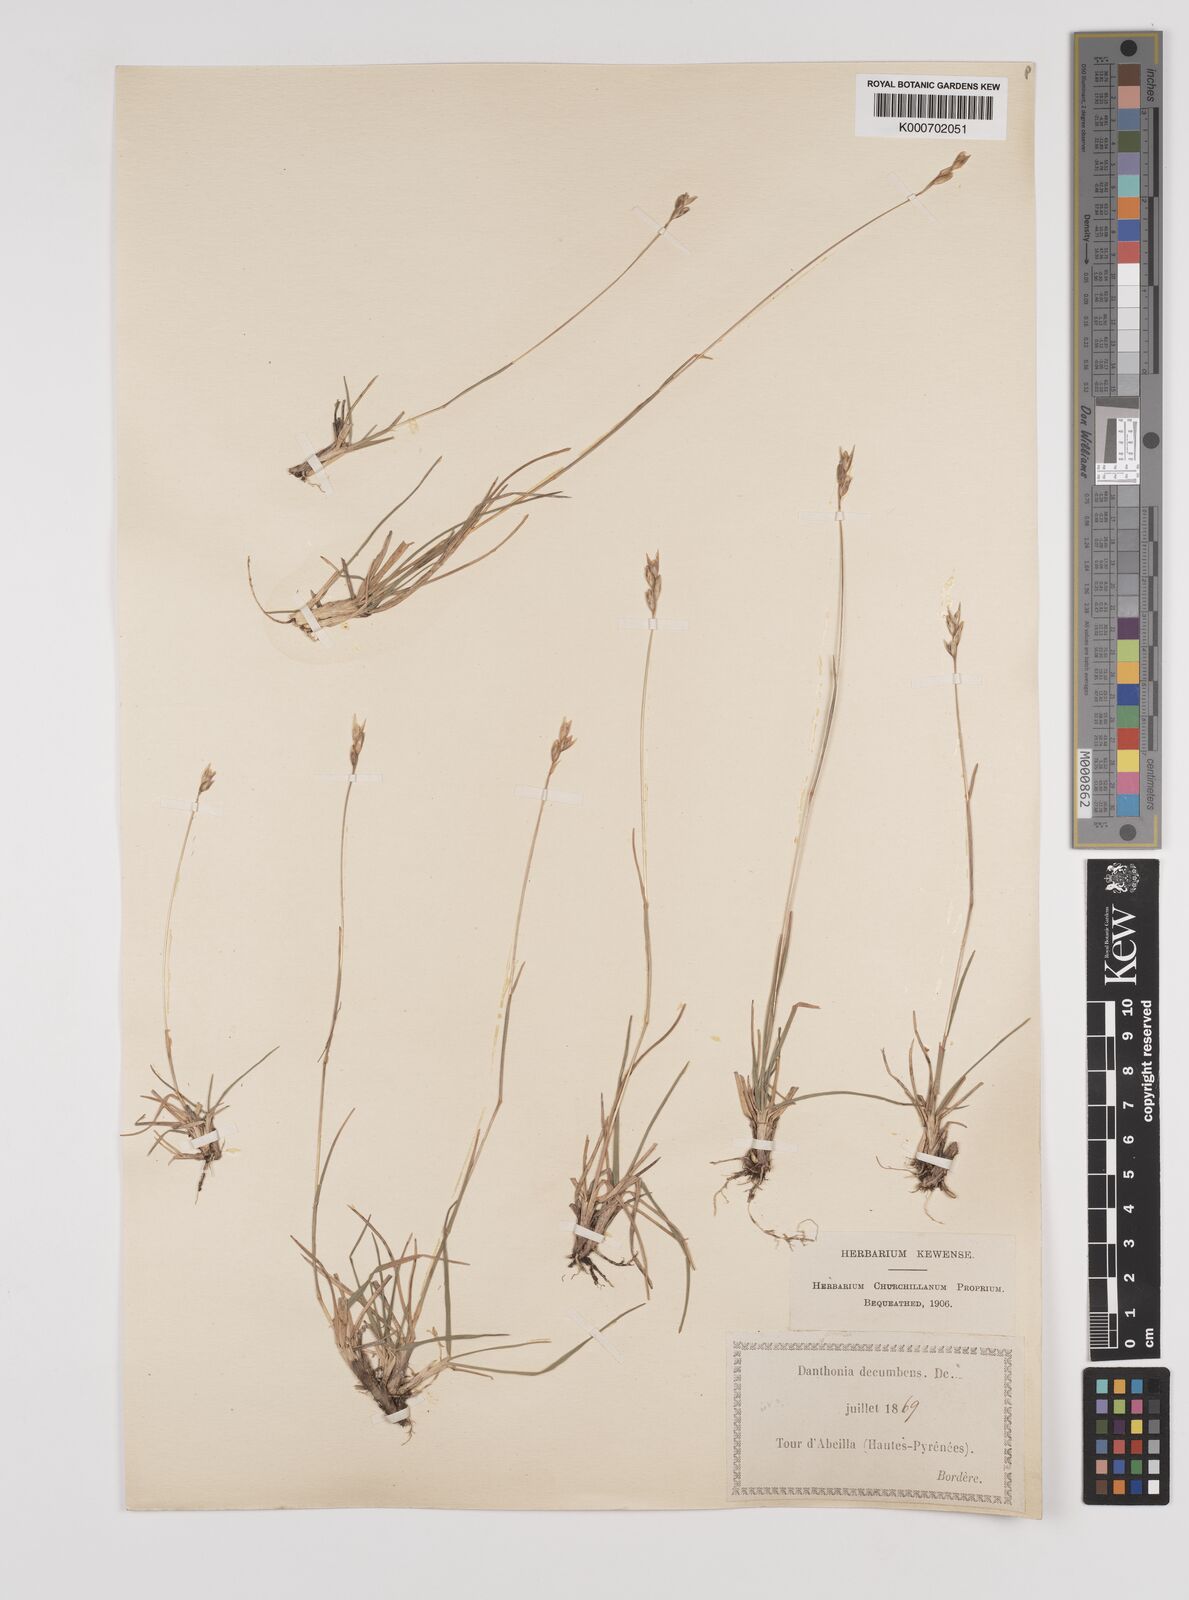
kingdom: Plantae
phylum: Tracheophyta
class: Liliopsida
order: Poales
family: Poaceae
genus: Danthonia
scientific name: Danthonia decumbens
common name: Common heathgrass
